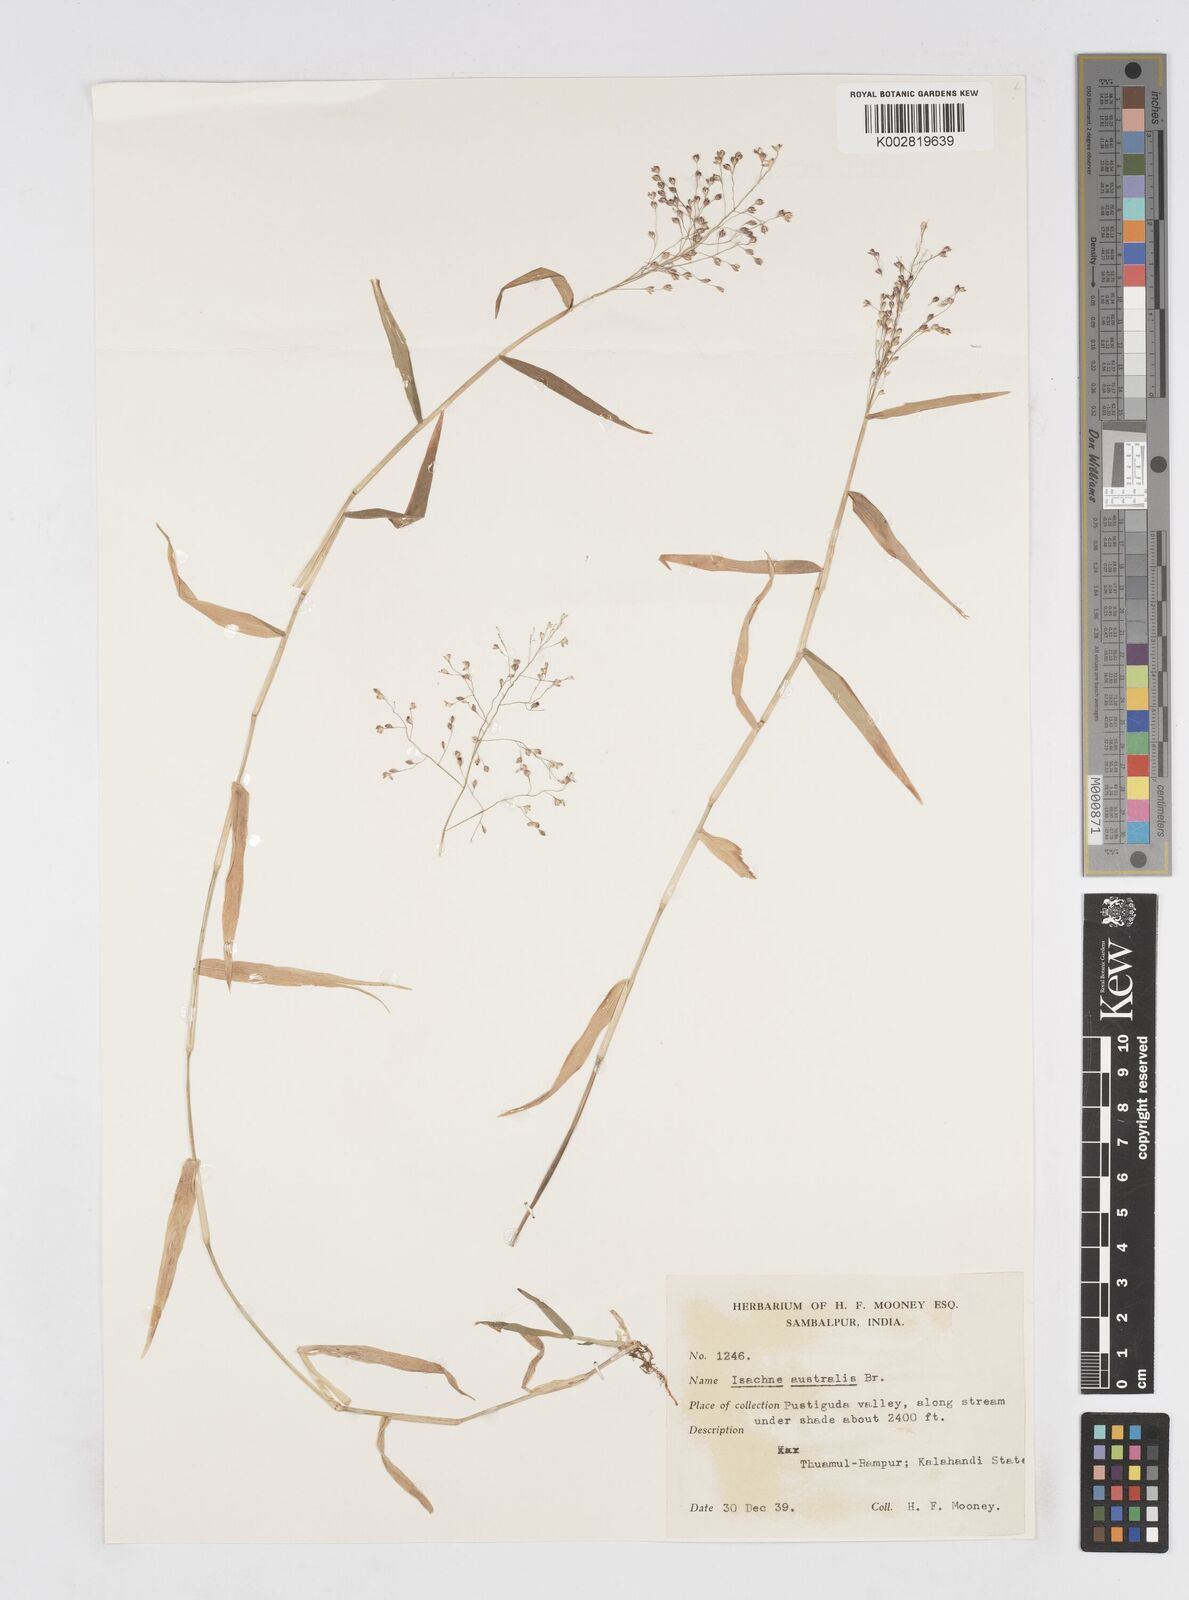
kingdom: Plantae
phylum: Tracheophyta
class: Liliopsida
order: Poales
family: Poaceae
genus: Isachne
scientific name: Isachne globosa
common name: Swamp millet
